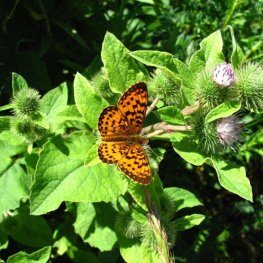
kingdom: Animalia
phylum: Arthropoda
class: Insecta
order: Lepidoptera
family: Nymphalidae
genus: Boloria
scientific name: Boloria selene
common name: Silver-bordered Fritillary
